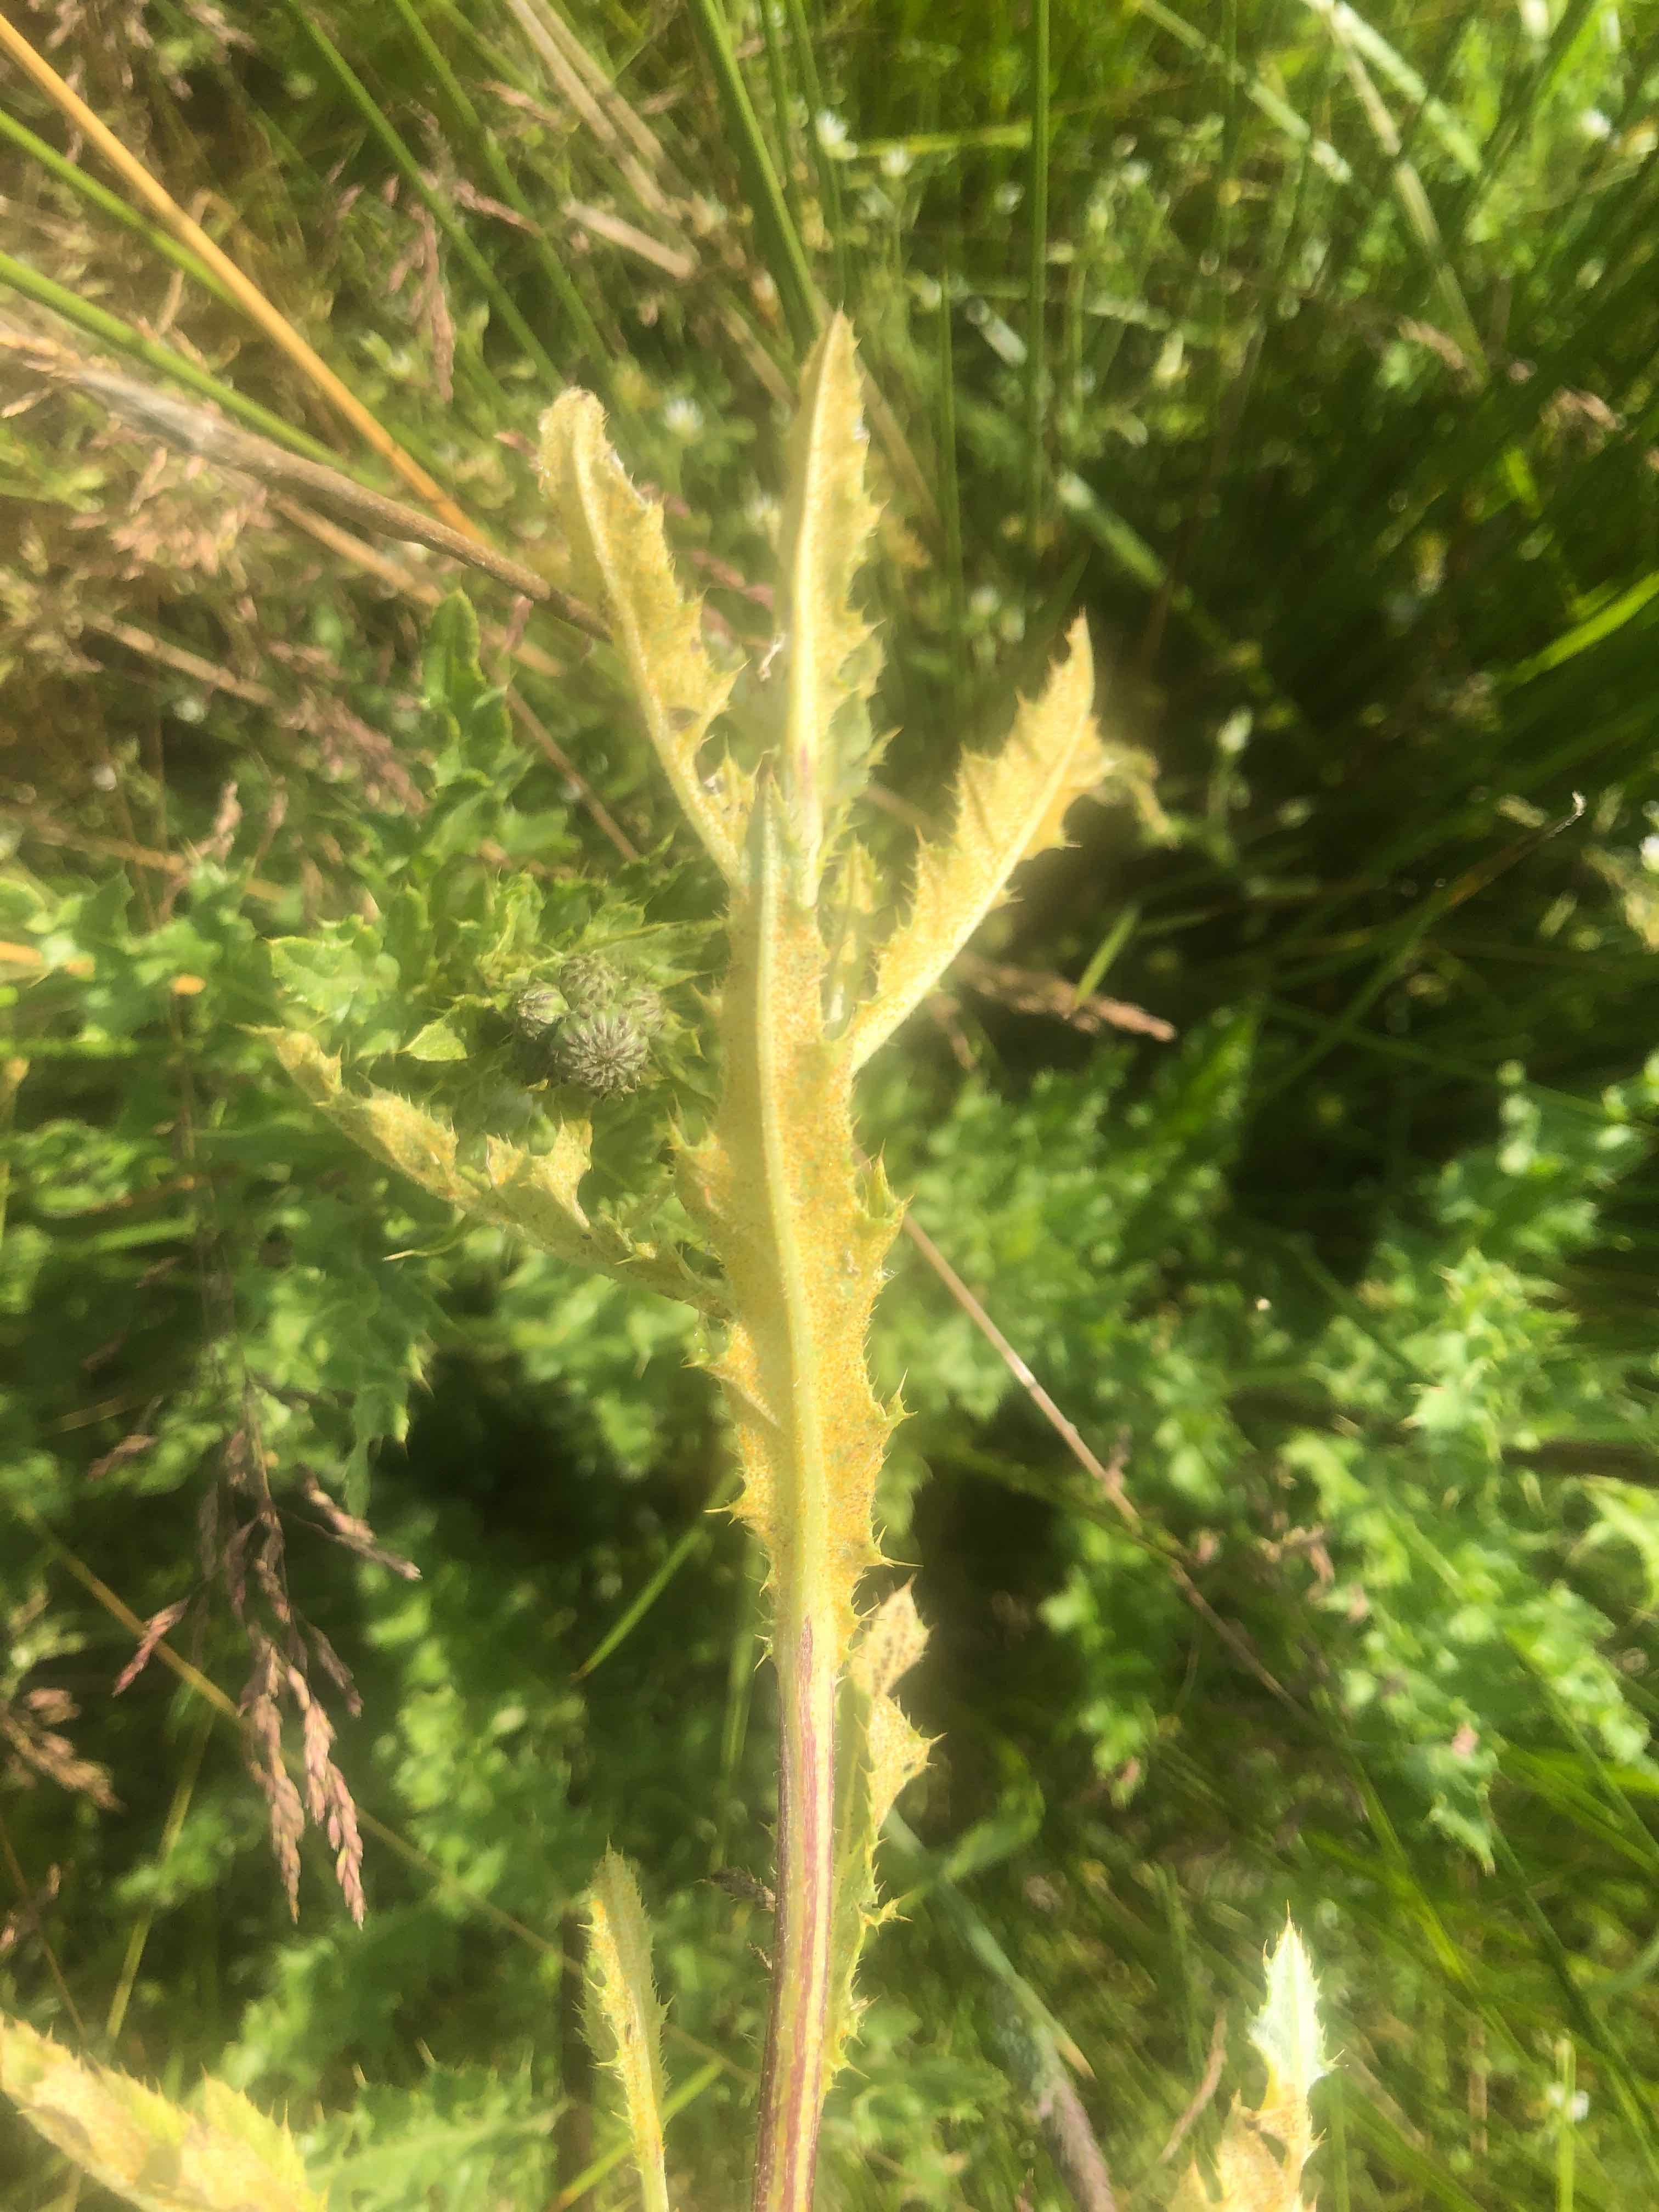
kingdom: Fungi
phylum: Basidiomycota
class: Pucciniomycetes
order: Pucciniales
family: Pucciniaceae
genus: Puccinia
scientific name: Puccinia suaveolens
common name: tidsel-tvecellerust
